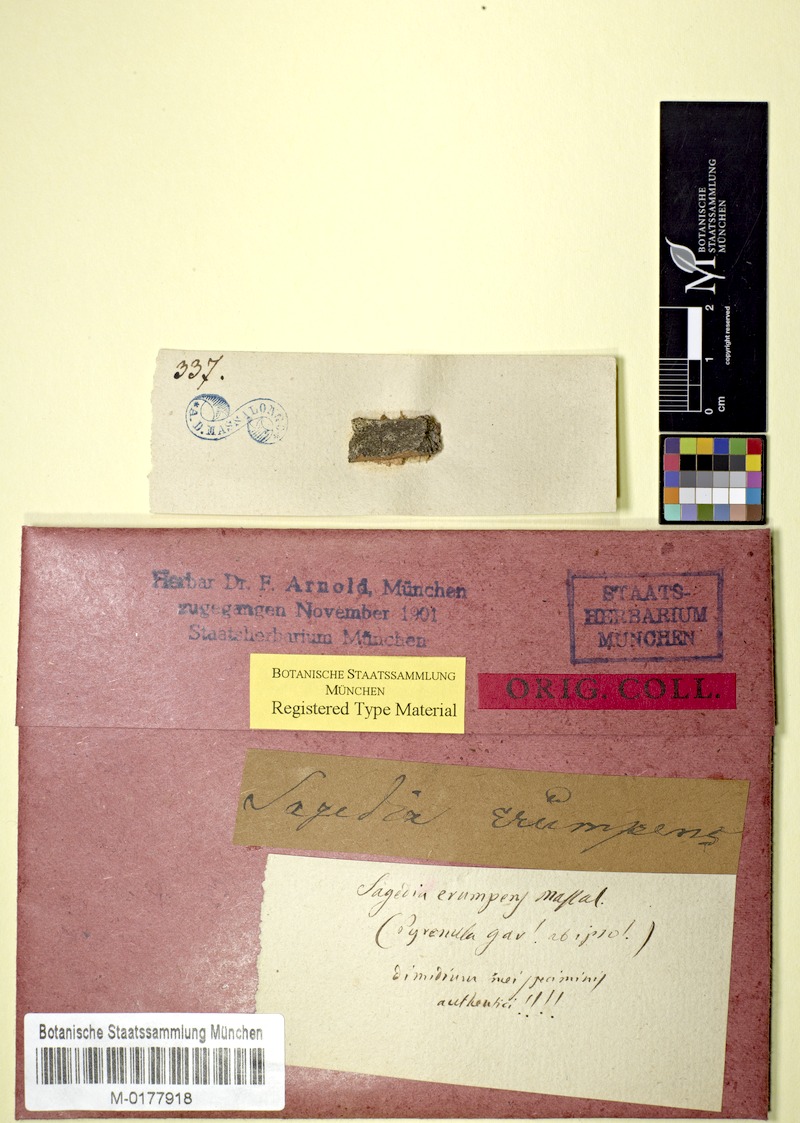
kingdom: Fungi
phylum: Ascomycota
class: Lecanoromycetes
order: Pertusariales
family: Pertusariaceae
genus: Porina
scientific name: Porina
